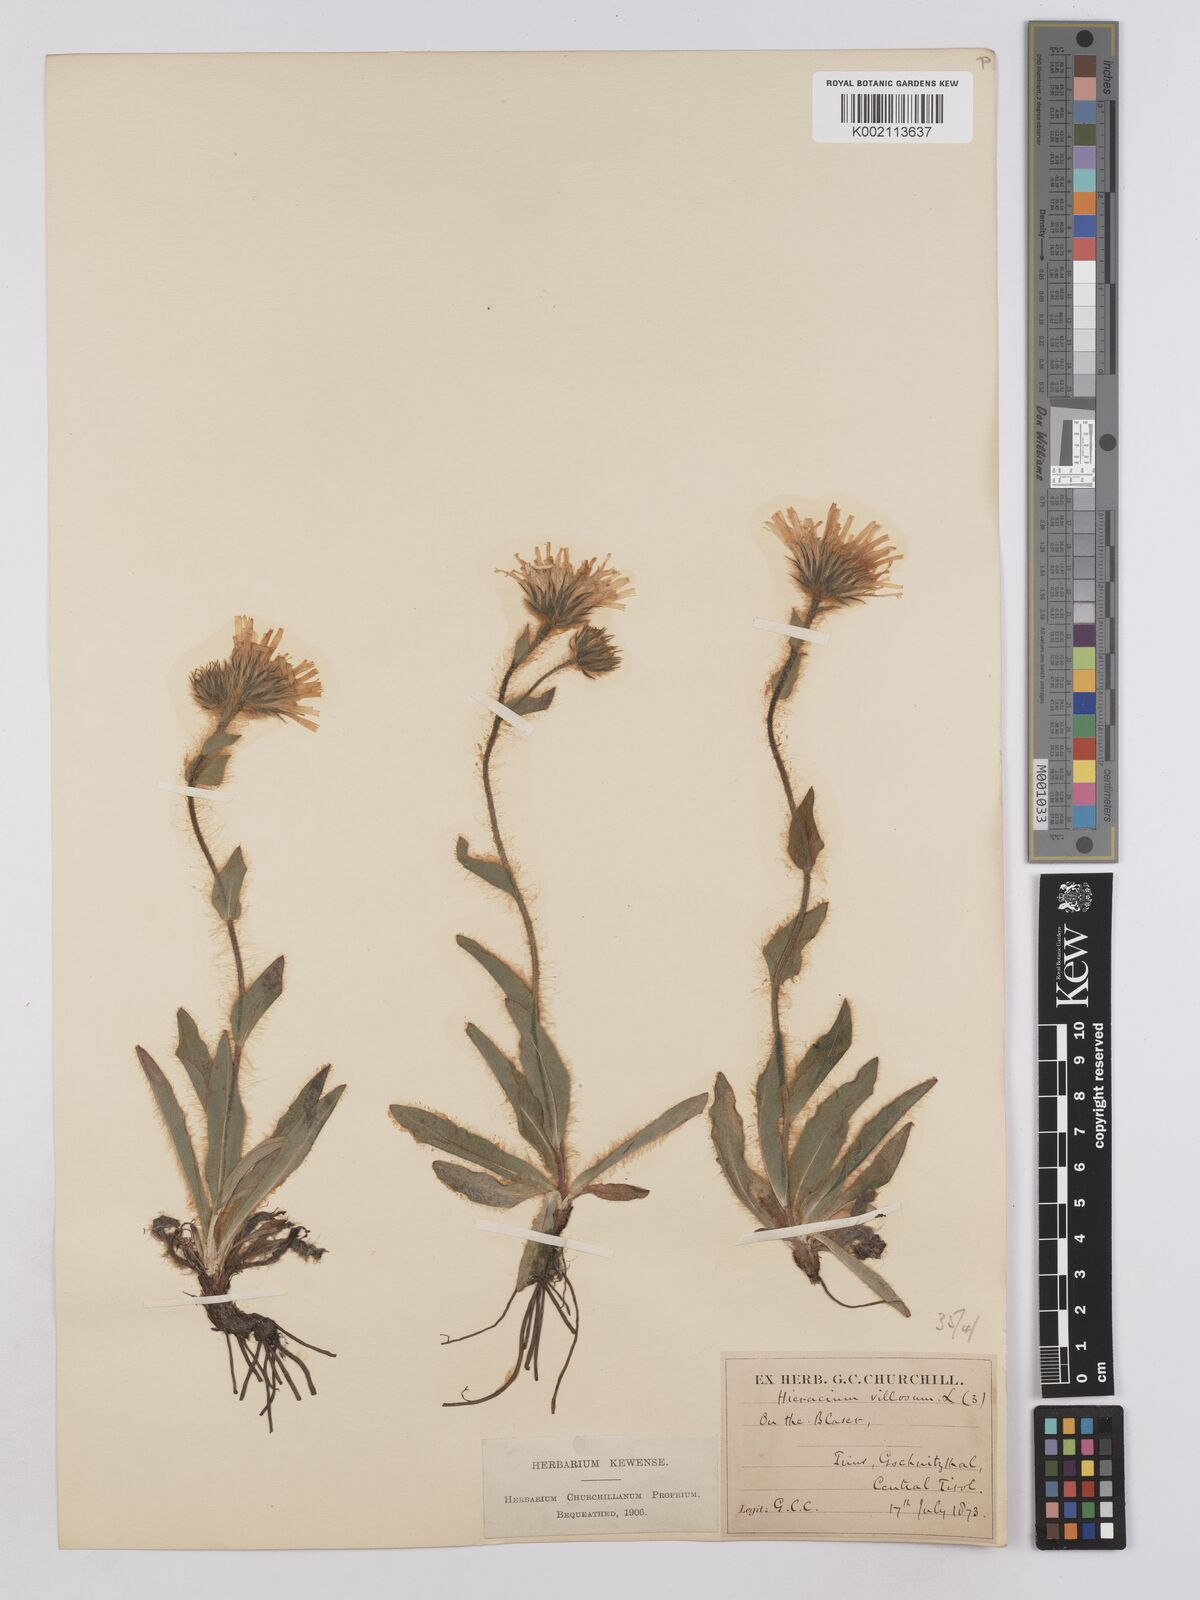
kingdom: Plantae
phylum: Tracheophyta
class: Magnoliopsida
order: Asterales
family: Asteraceae
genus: Hieracium
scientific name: Hieracium villosum
